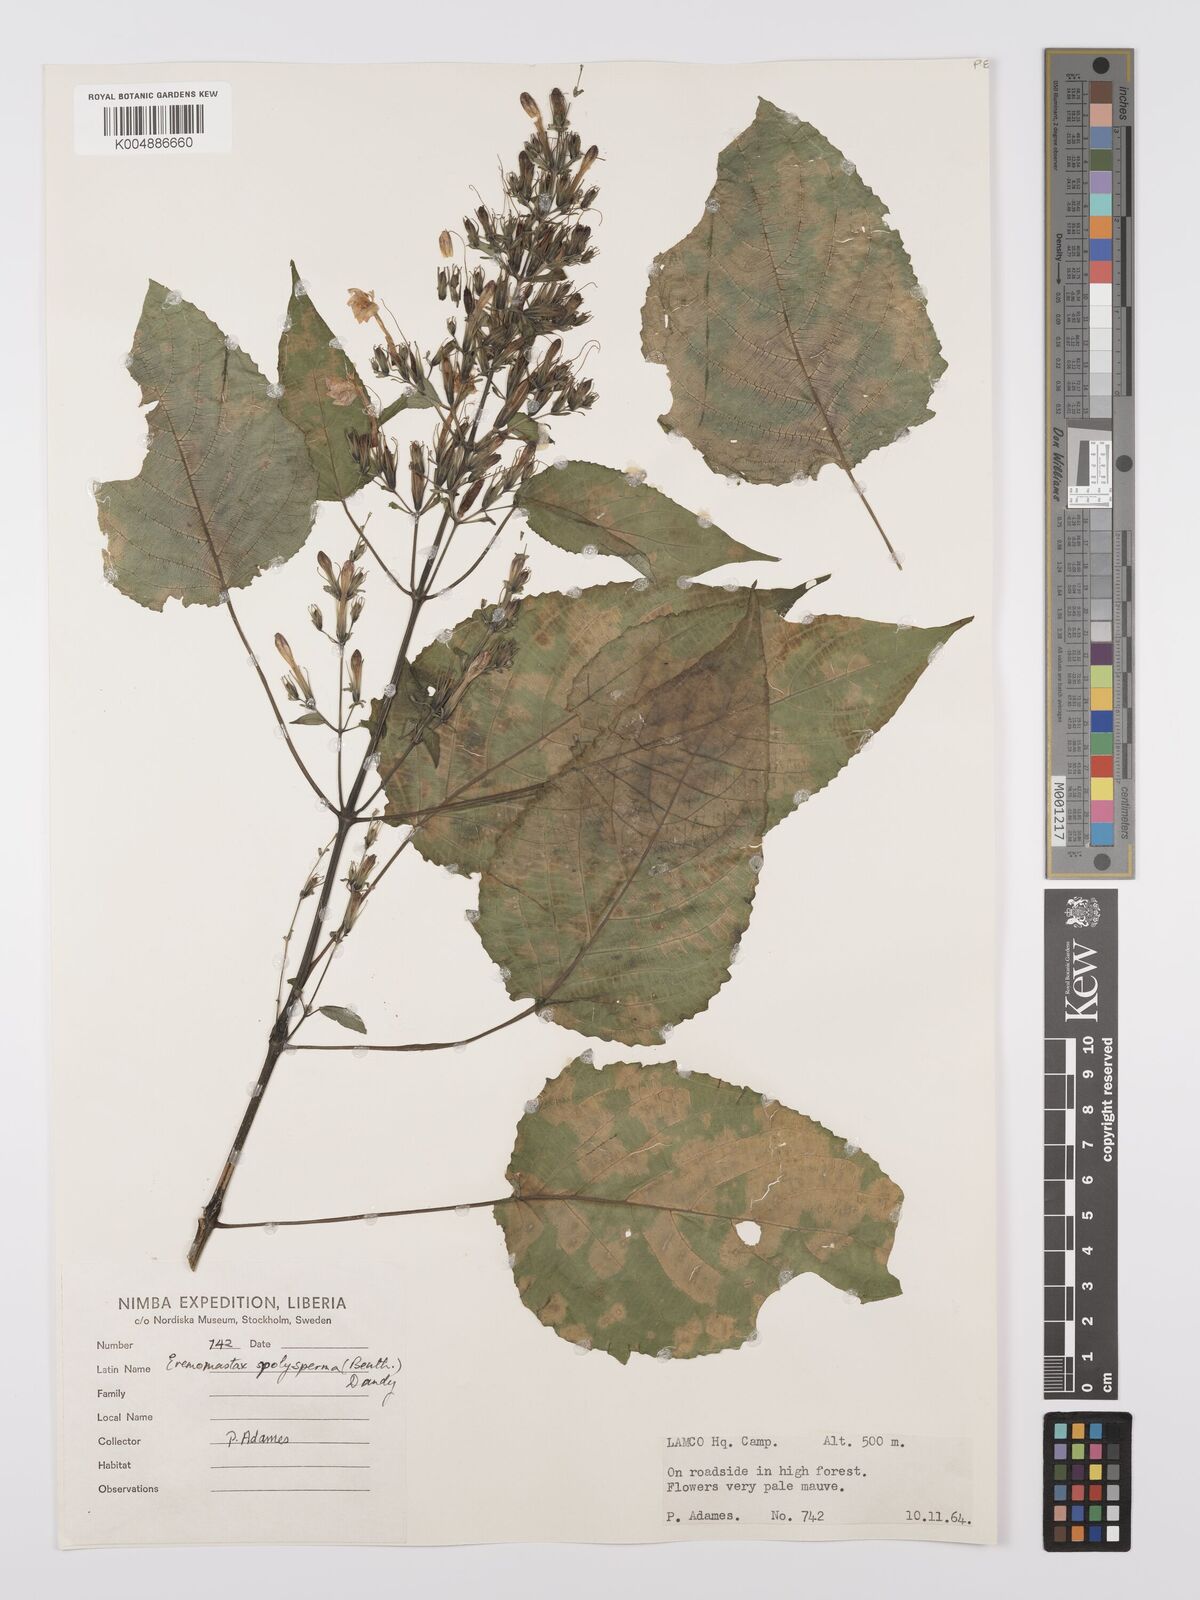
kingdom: Plantae
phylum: Tracheophyta
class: Magnoliopsida
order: Lamiales
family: Acanthaceae
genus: Eremomastax
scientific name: Eremomastax speciosa
